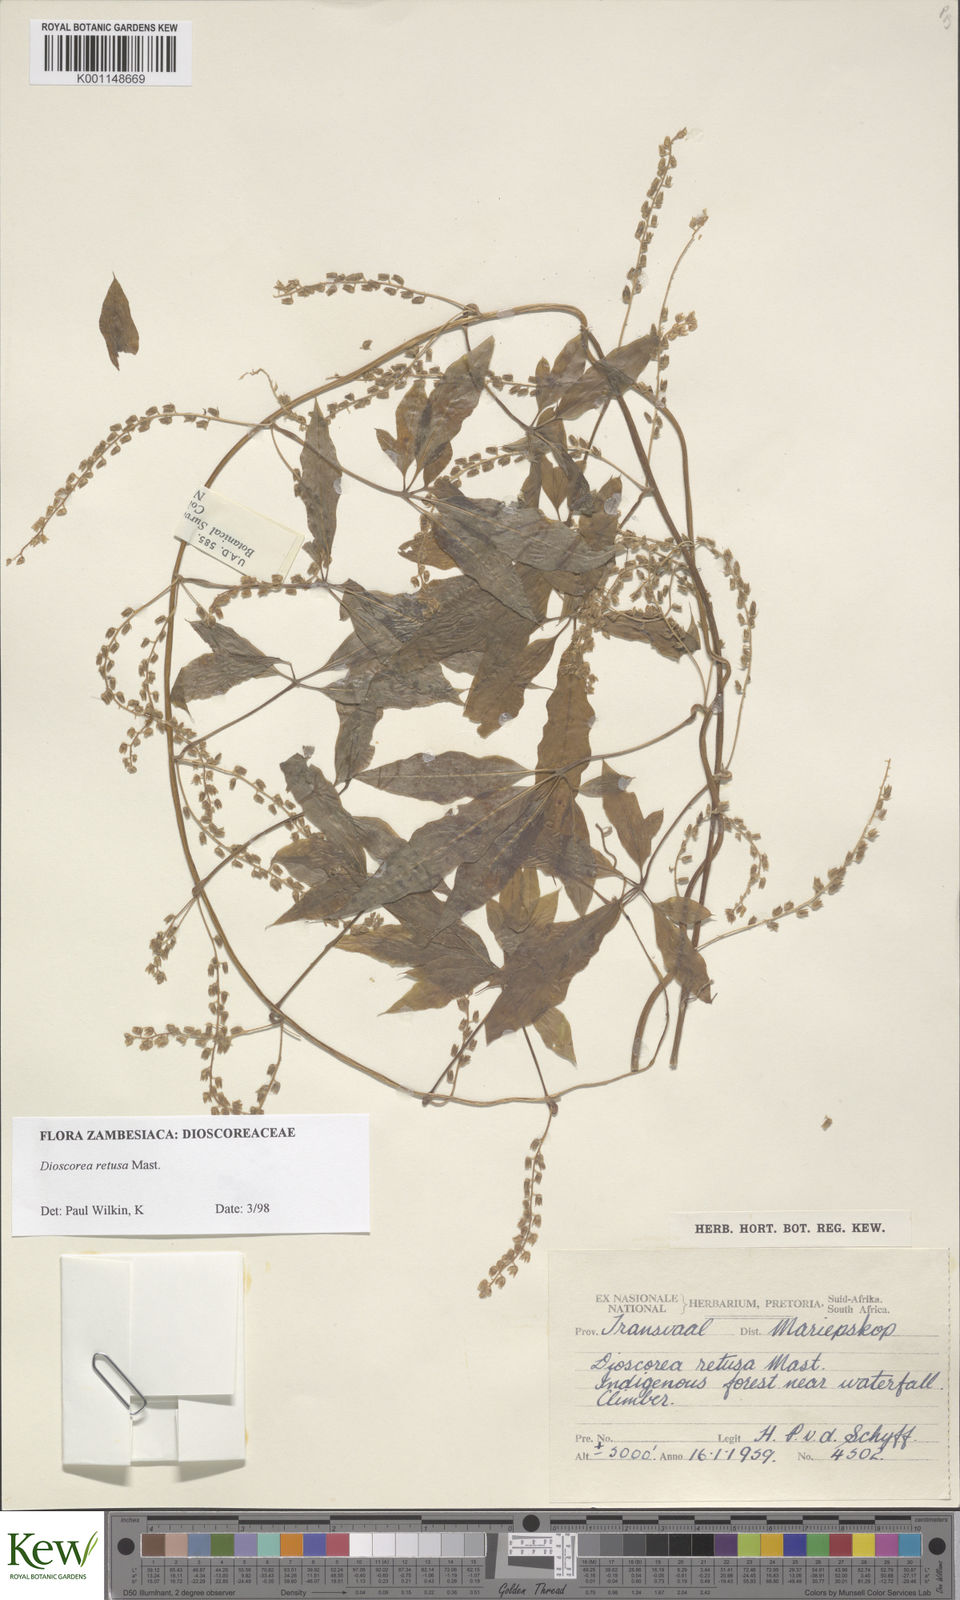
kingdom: Plantae
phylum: Tracheophyta
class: Liliopsida
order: Dioscoreales
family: Dioscoreaceae
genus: Dioscorea
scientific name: Dioscorea retusa
